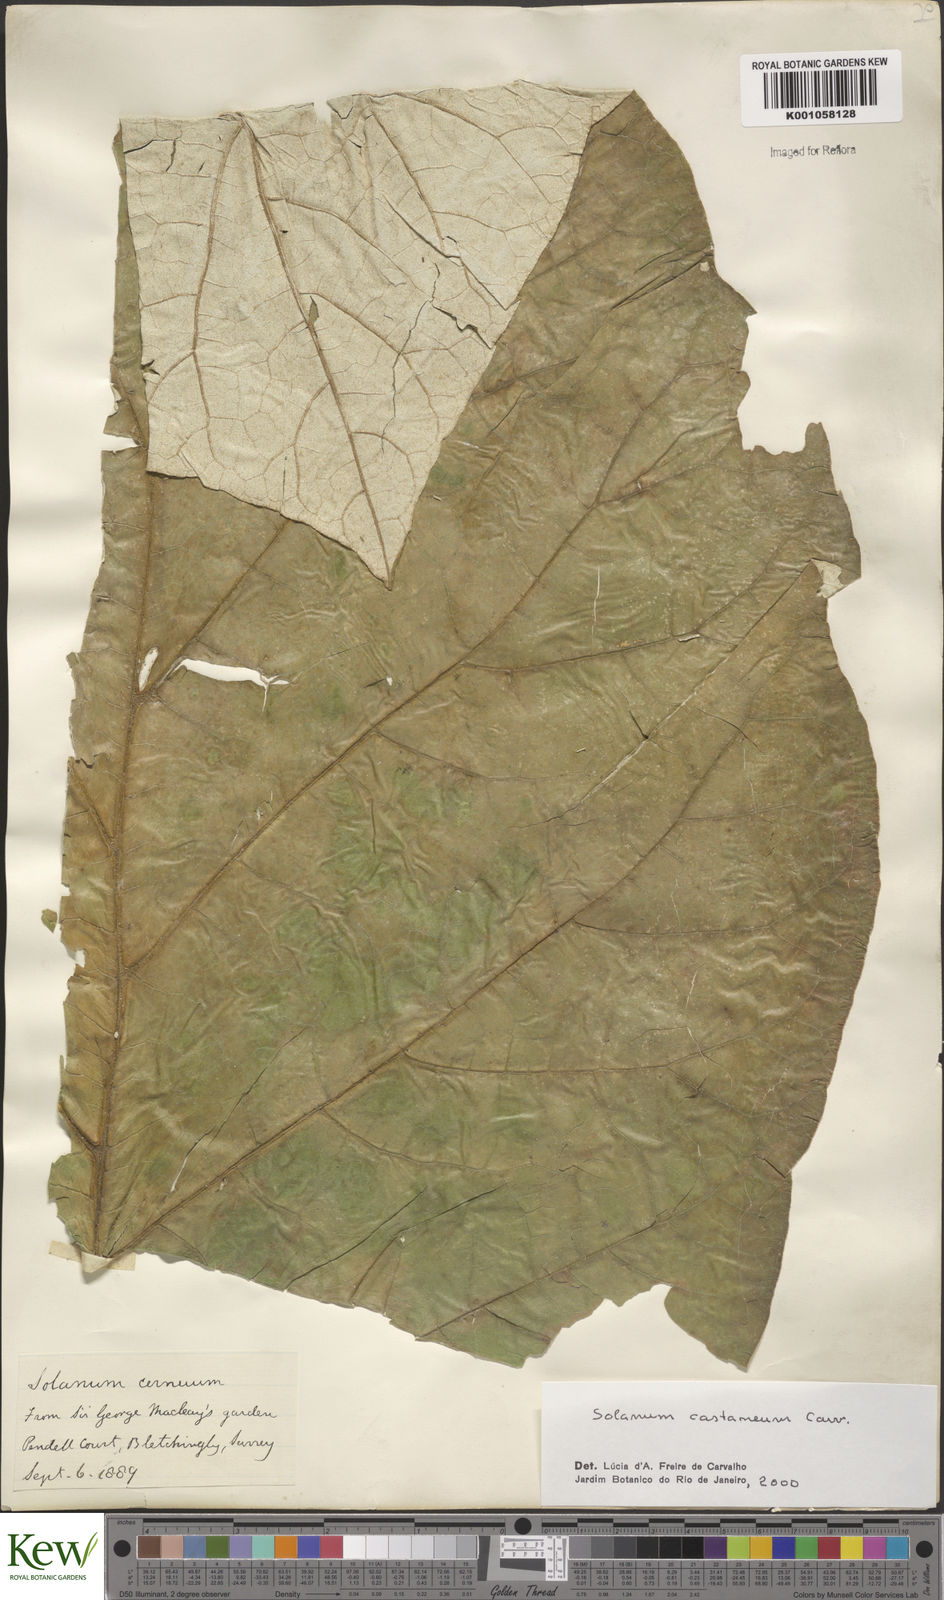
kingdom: Plantae
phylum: Tracheophyta
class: Magnoliopsida
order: Solanales
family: Solanaceae
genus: Solanum
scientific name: Solanum castaneum
